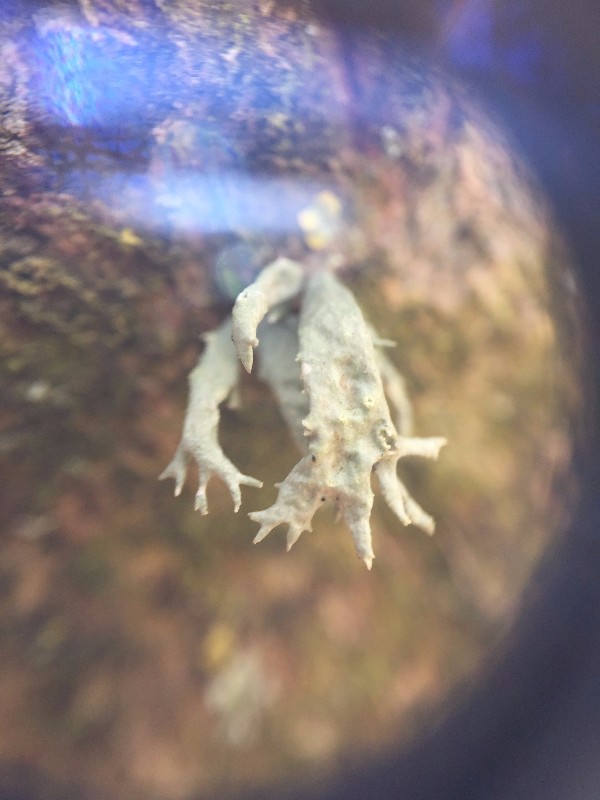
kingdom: Fungi
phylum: Ascomycota
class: Lecanoromycetes
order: Lecanorales
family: Ramalinaceae
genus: Ramalina
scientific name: Ramalina fastigiata
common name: tue-grenlav
